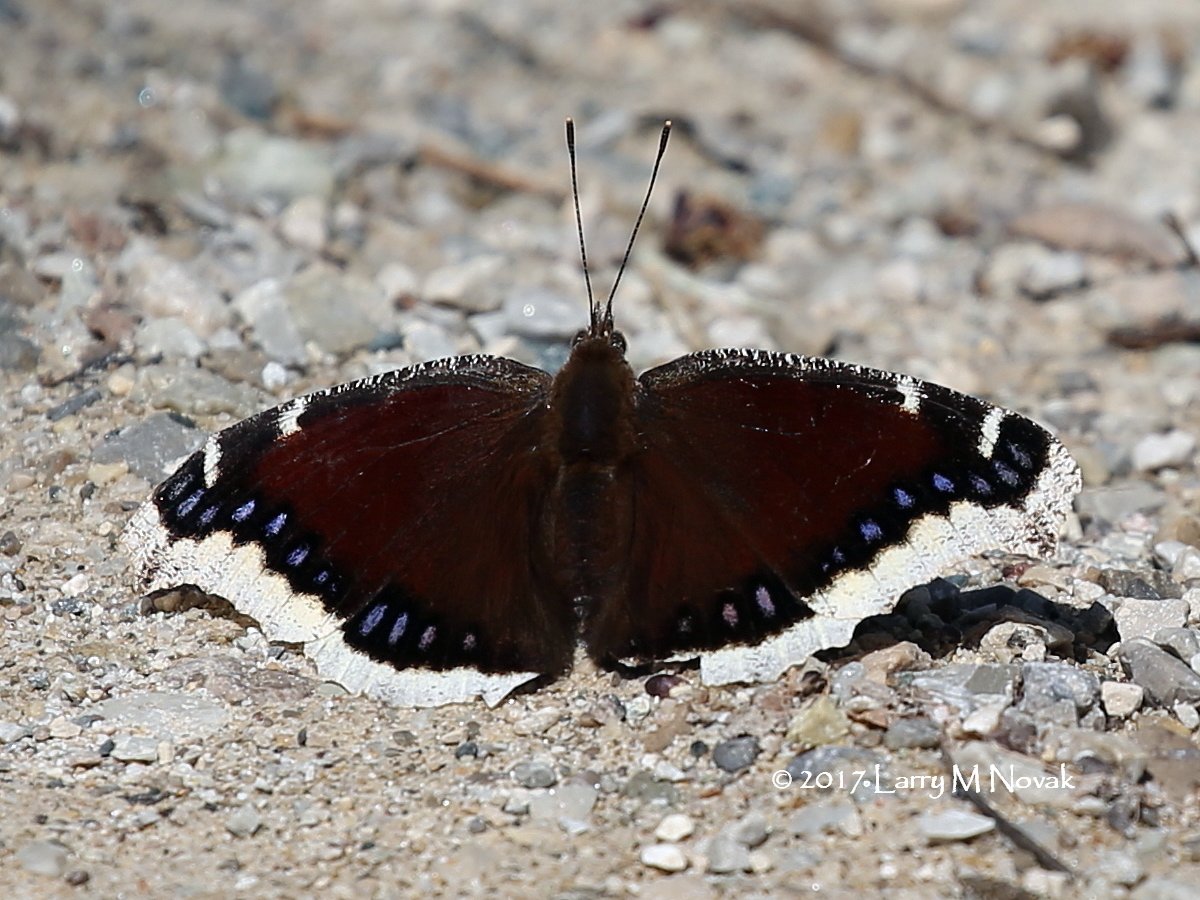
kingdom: Animalia
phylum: Arthropoda
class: Insecta
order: Lepidoptera
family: Nymphalidae
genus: Nymphalis
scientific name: Nymphalis antiopa
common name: Mourning Cloak
